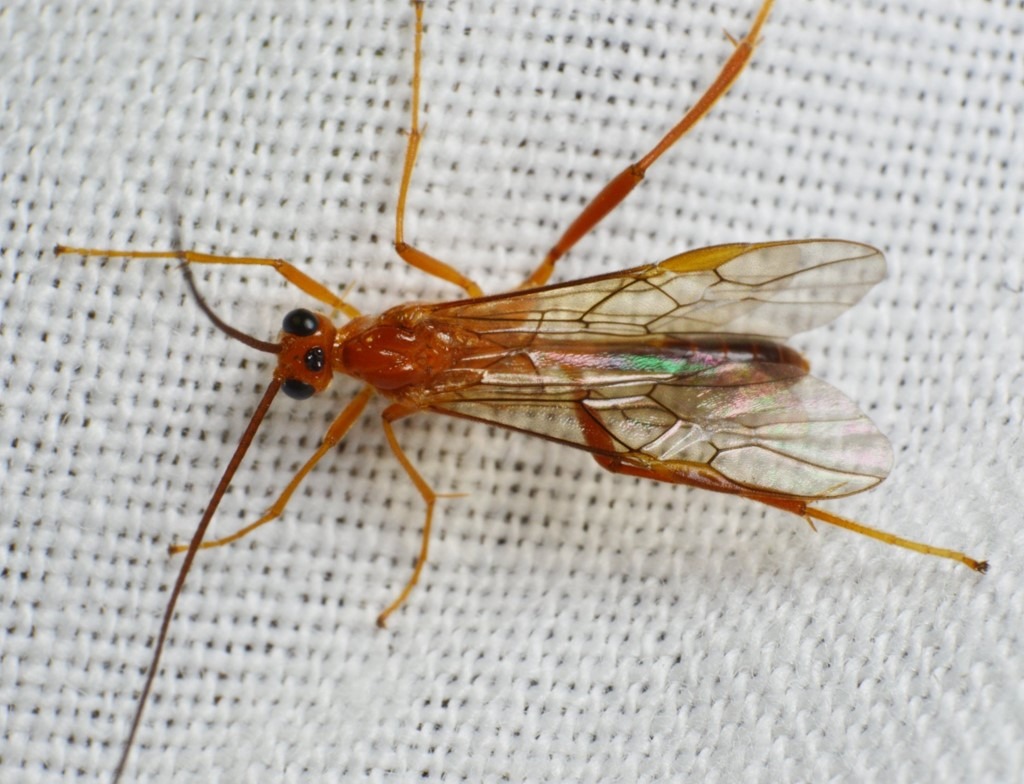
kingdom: Animalia
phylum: Arthropoda
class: Insecta
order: Hymenoptera
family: Braconidae
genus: Homolobus
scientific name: Homolobus annulicornis
